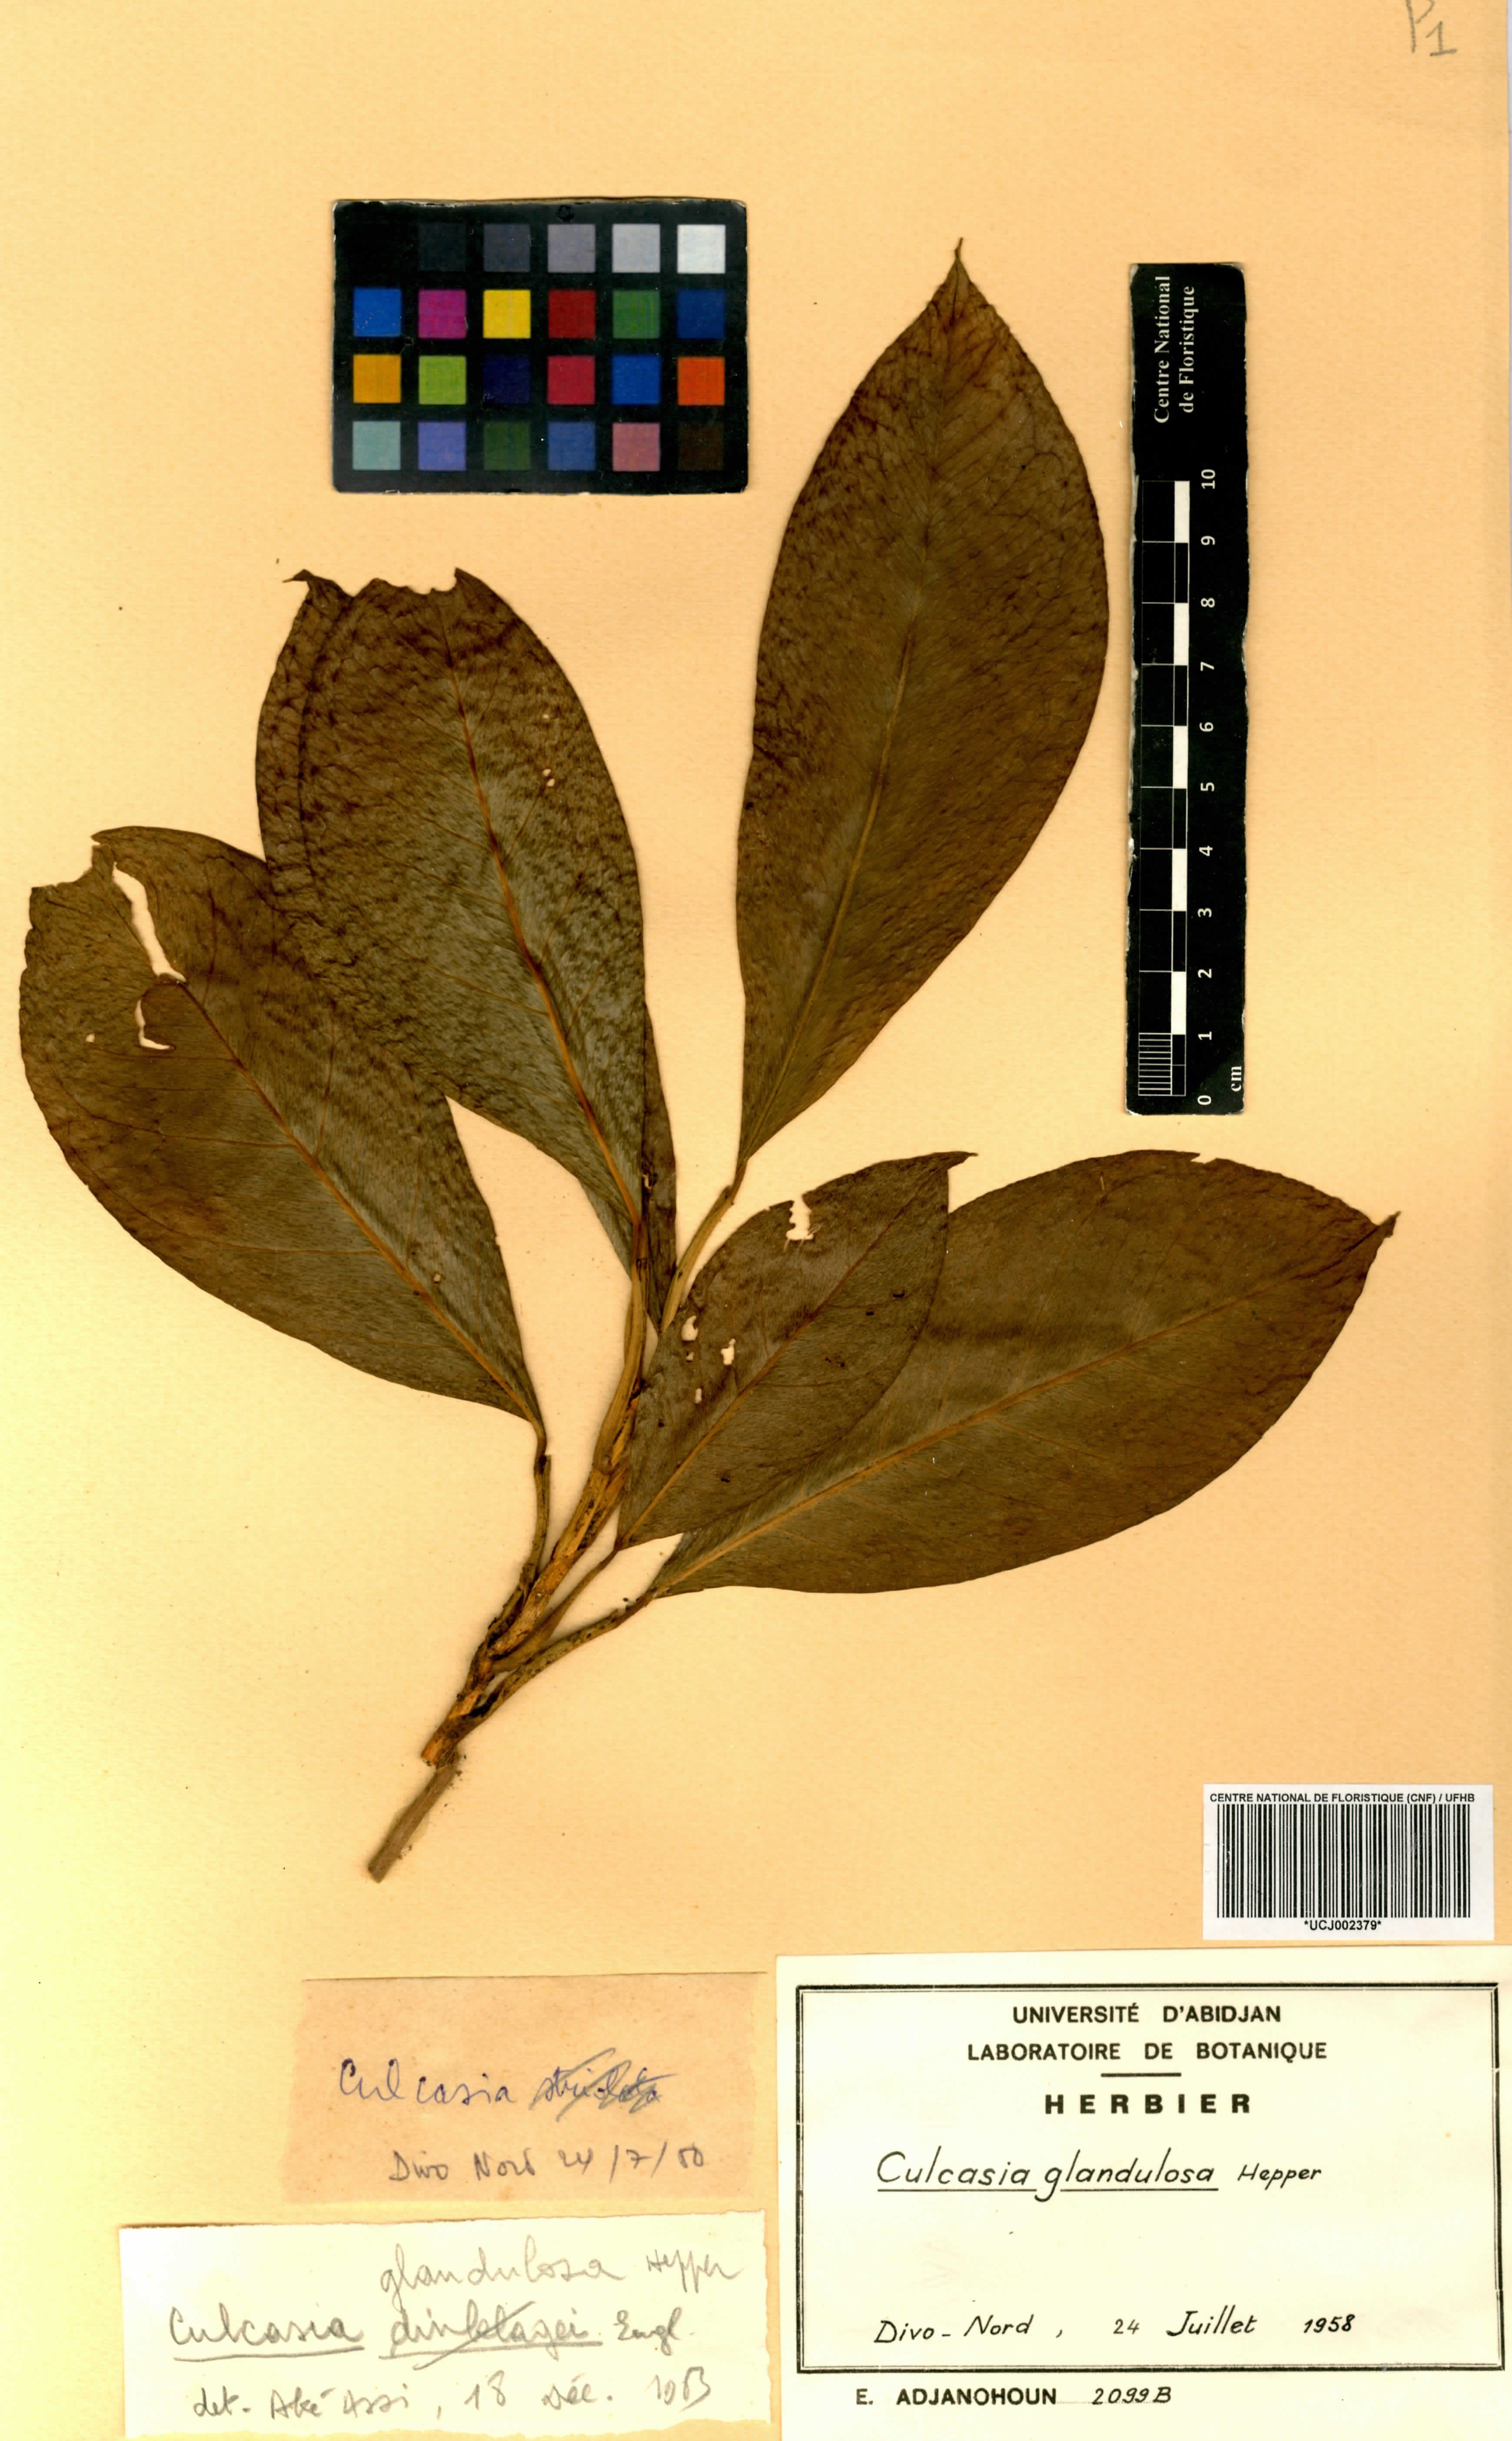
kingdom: Plantae
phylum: Tracheophyta
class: Liliopsida
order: Alismatales
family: Araceae
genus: Culcasia
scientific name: Culcasia glandulosa
